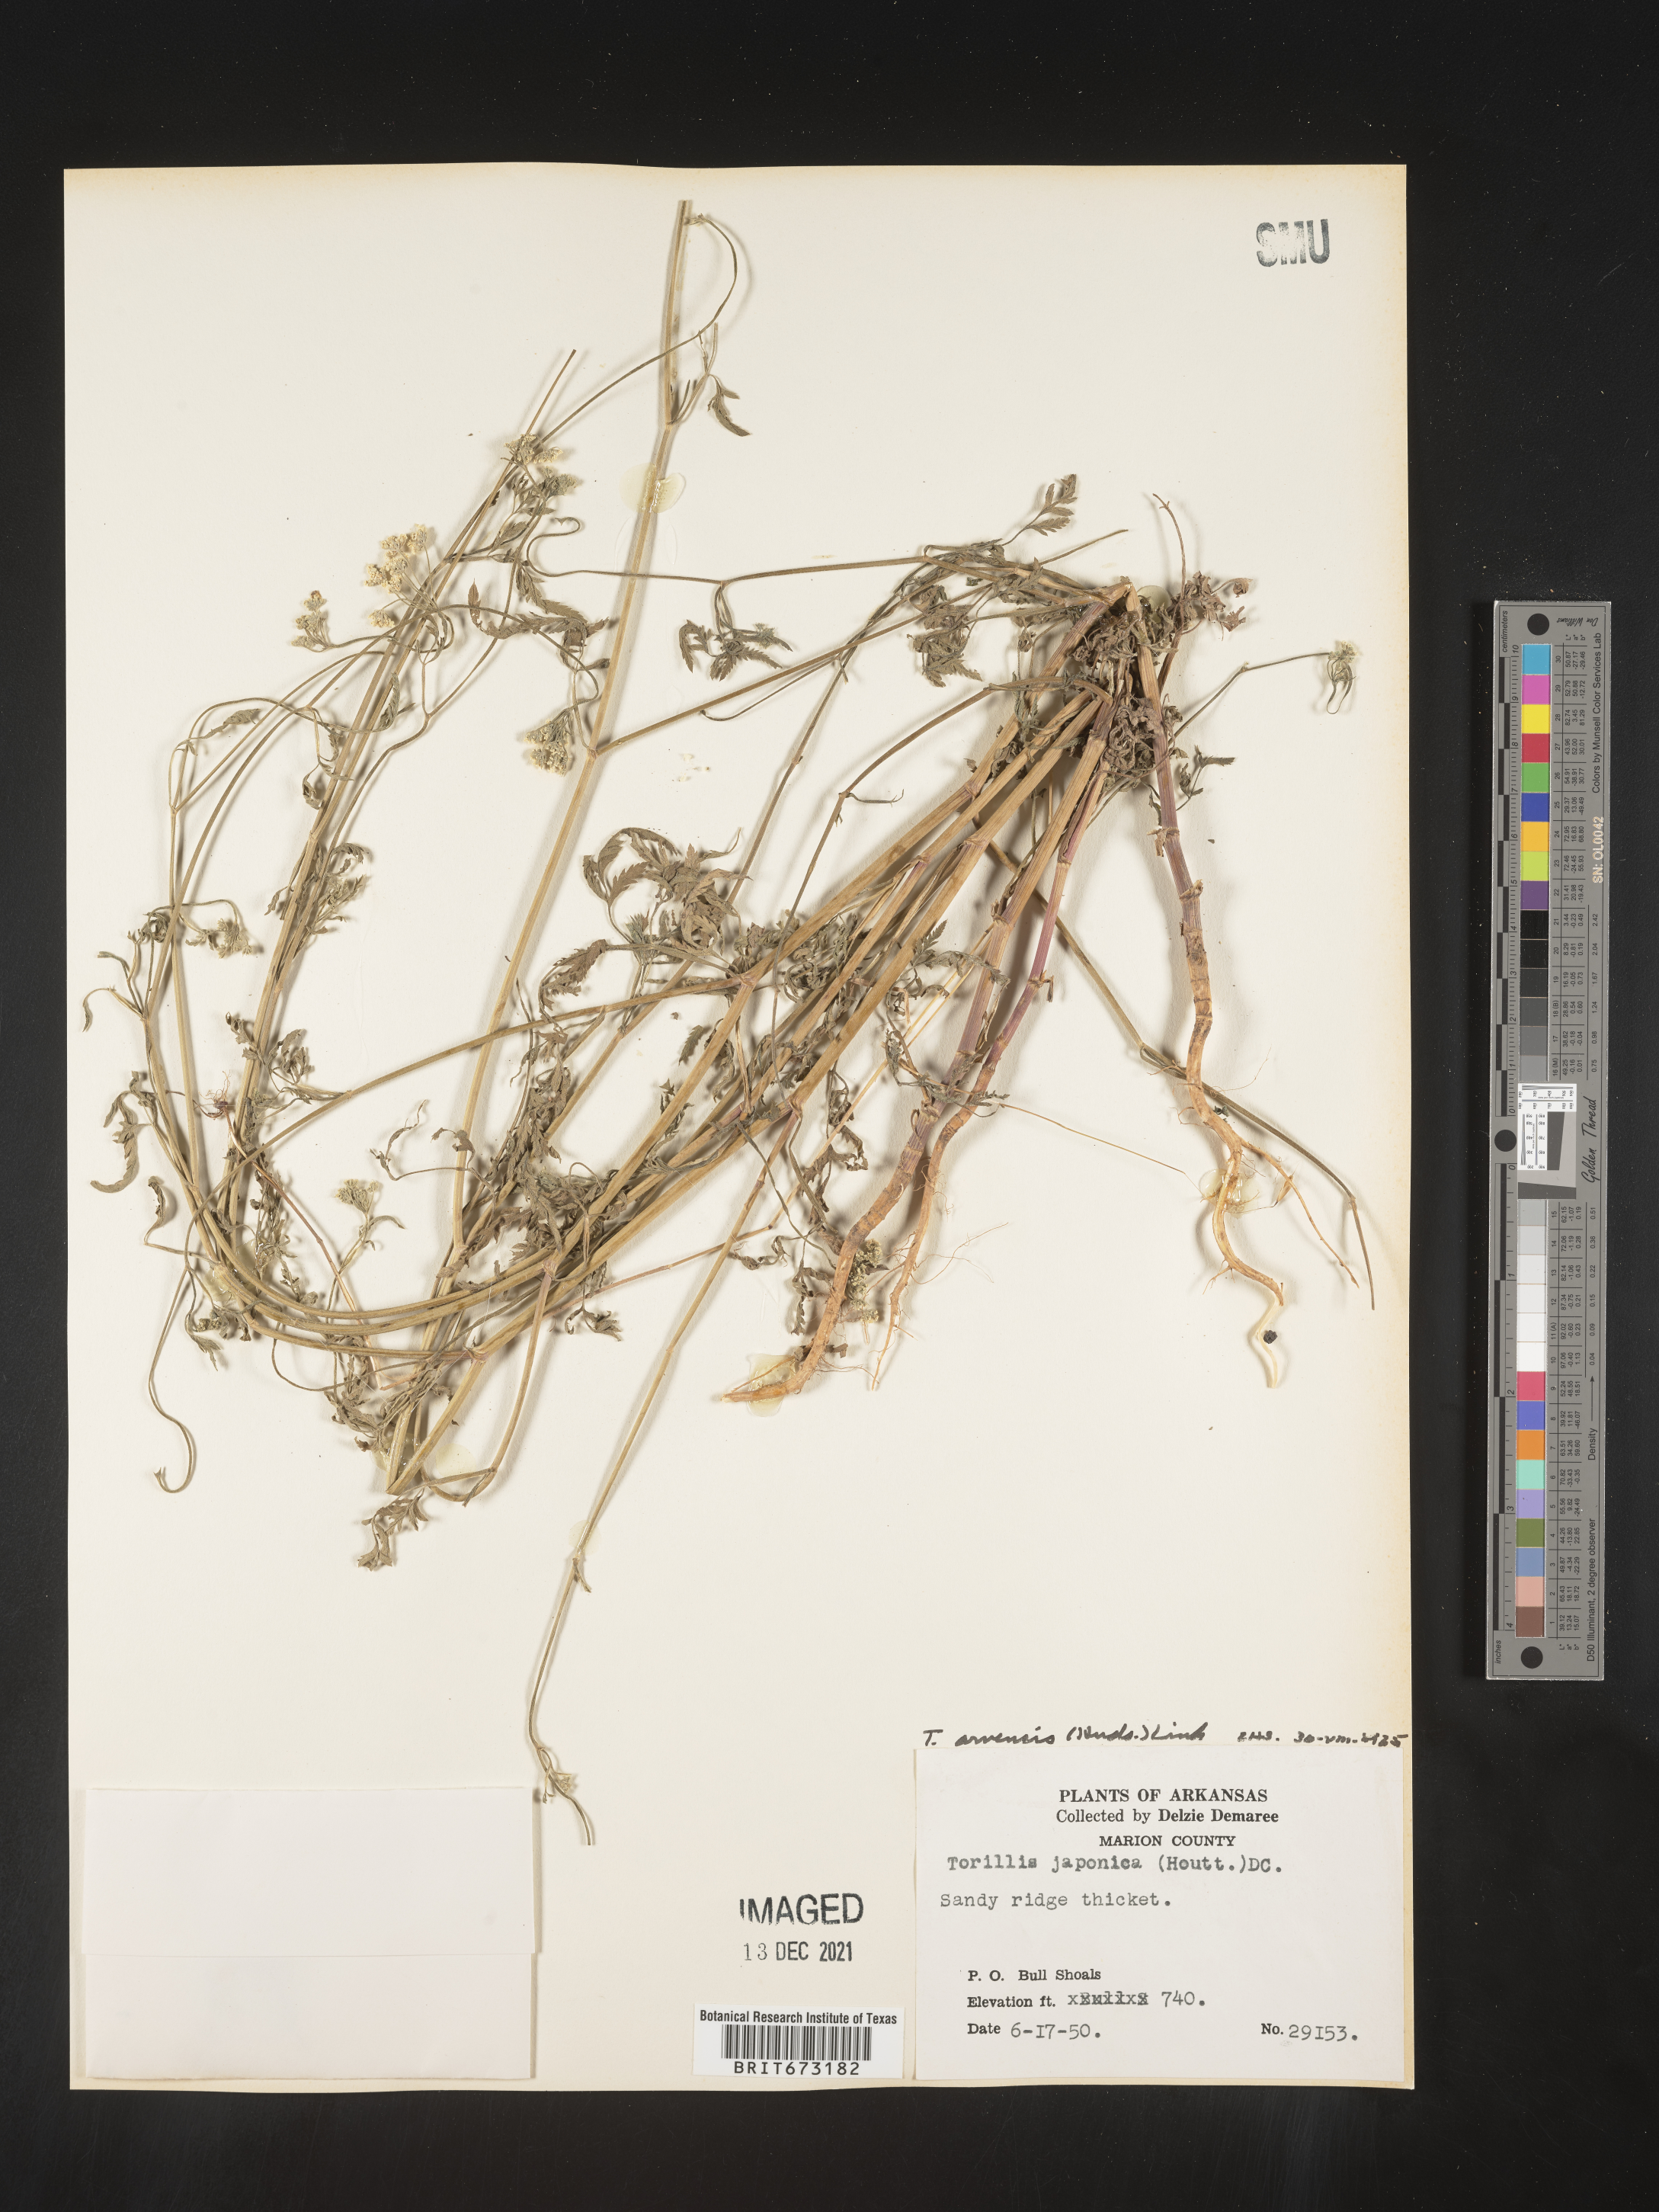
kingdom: Plantae
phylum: Tracheophyta
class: Magnoliopsida
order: Apiales
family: Apiaceae
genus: Torilis
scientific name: Torilis arvensis
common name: Spreading hedge-parsley
